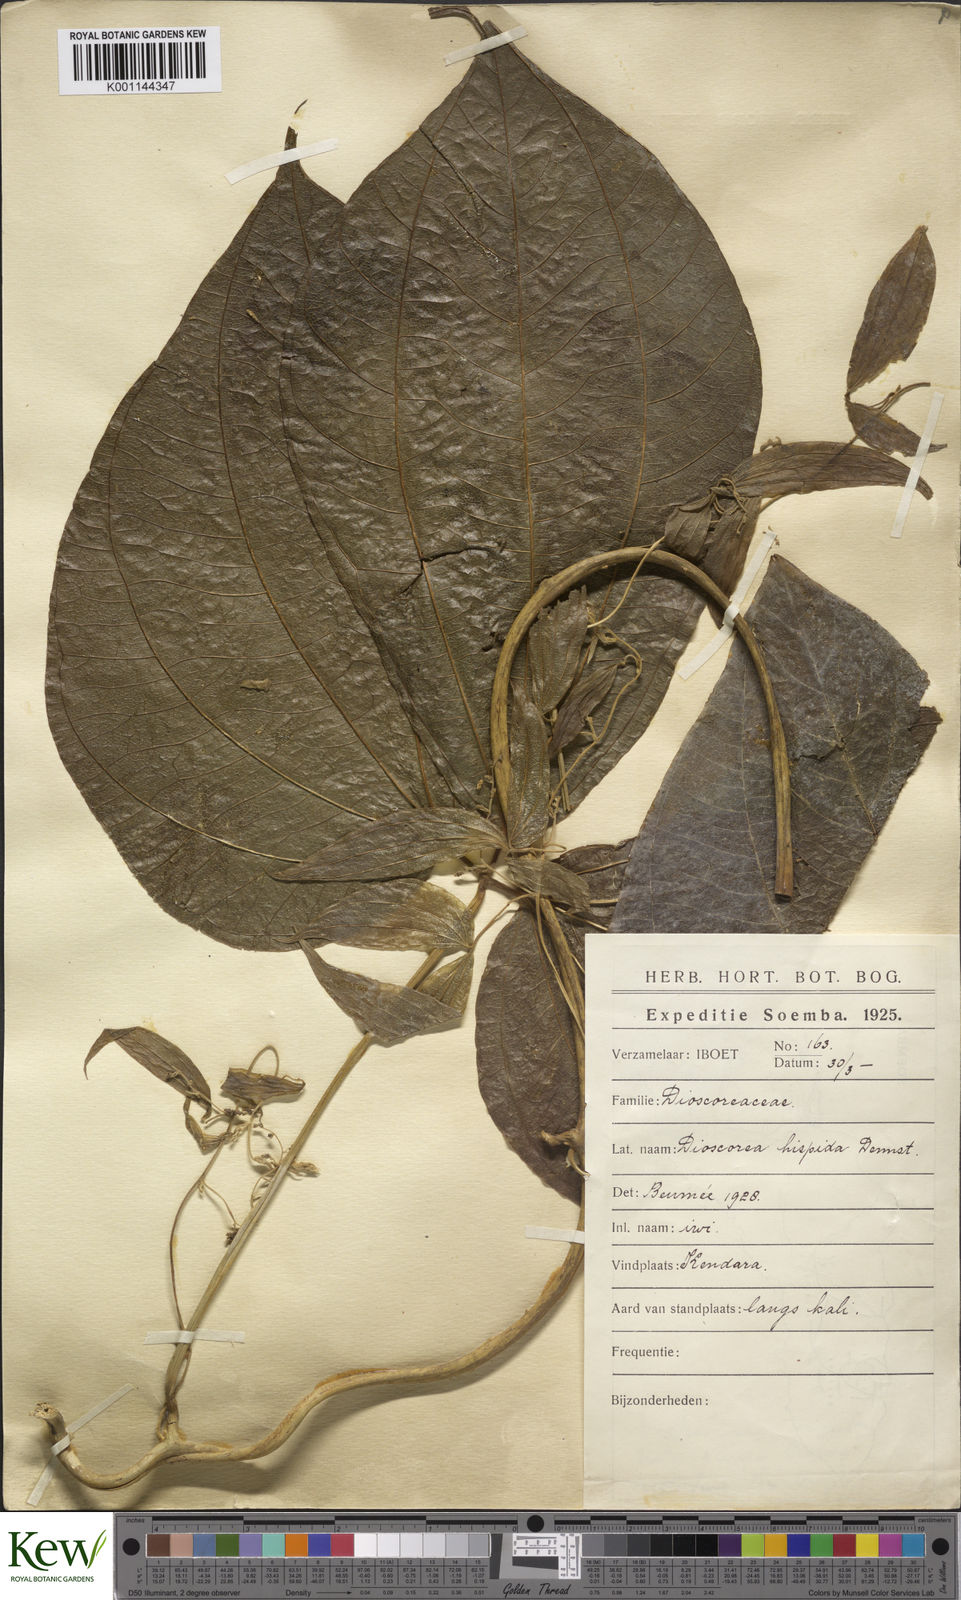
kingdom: Plantae
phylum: Tracheophyta
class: Liliopsida
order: Dioscoreales
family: Dioscoreaceae
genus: Dioscorea
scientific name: Dioscorea hispida
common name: Asiatic bitter yam
